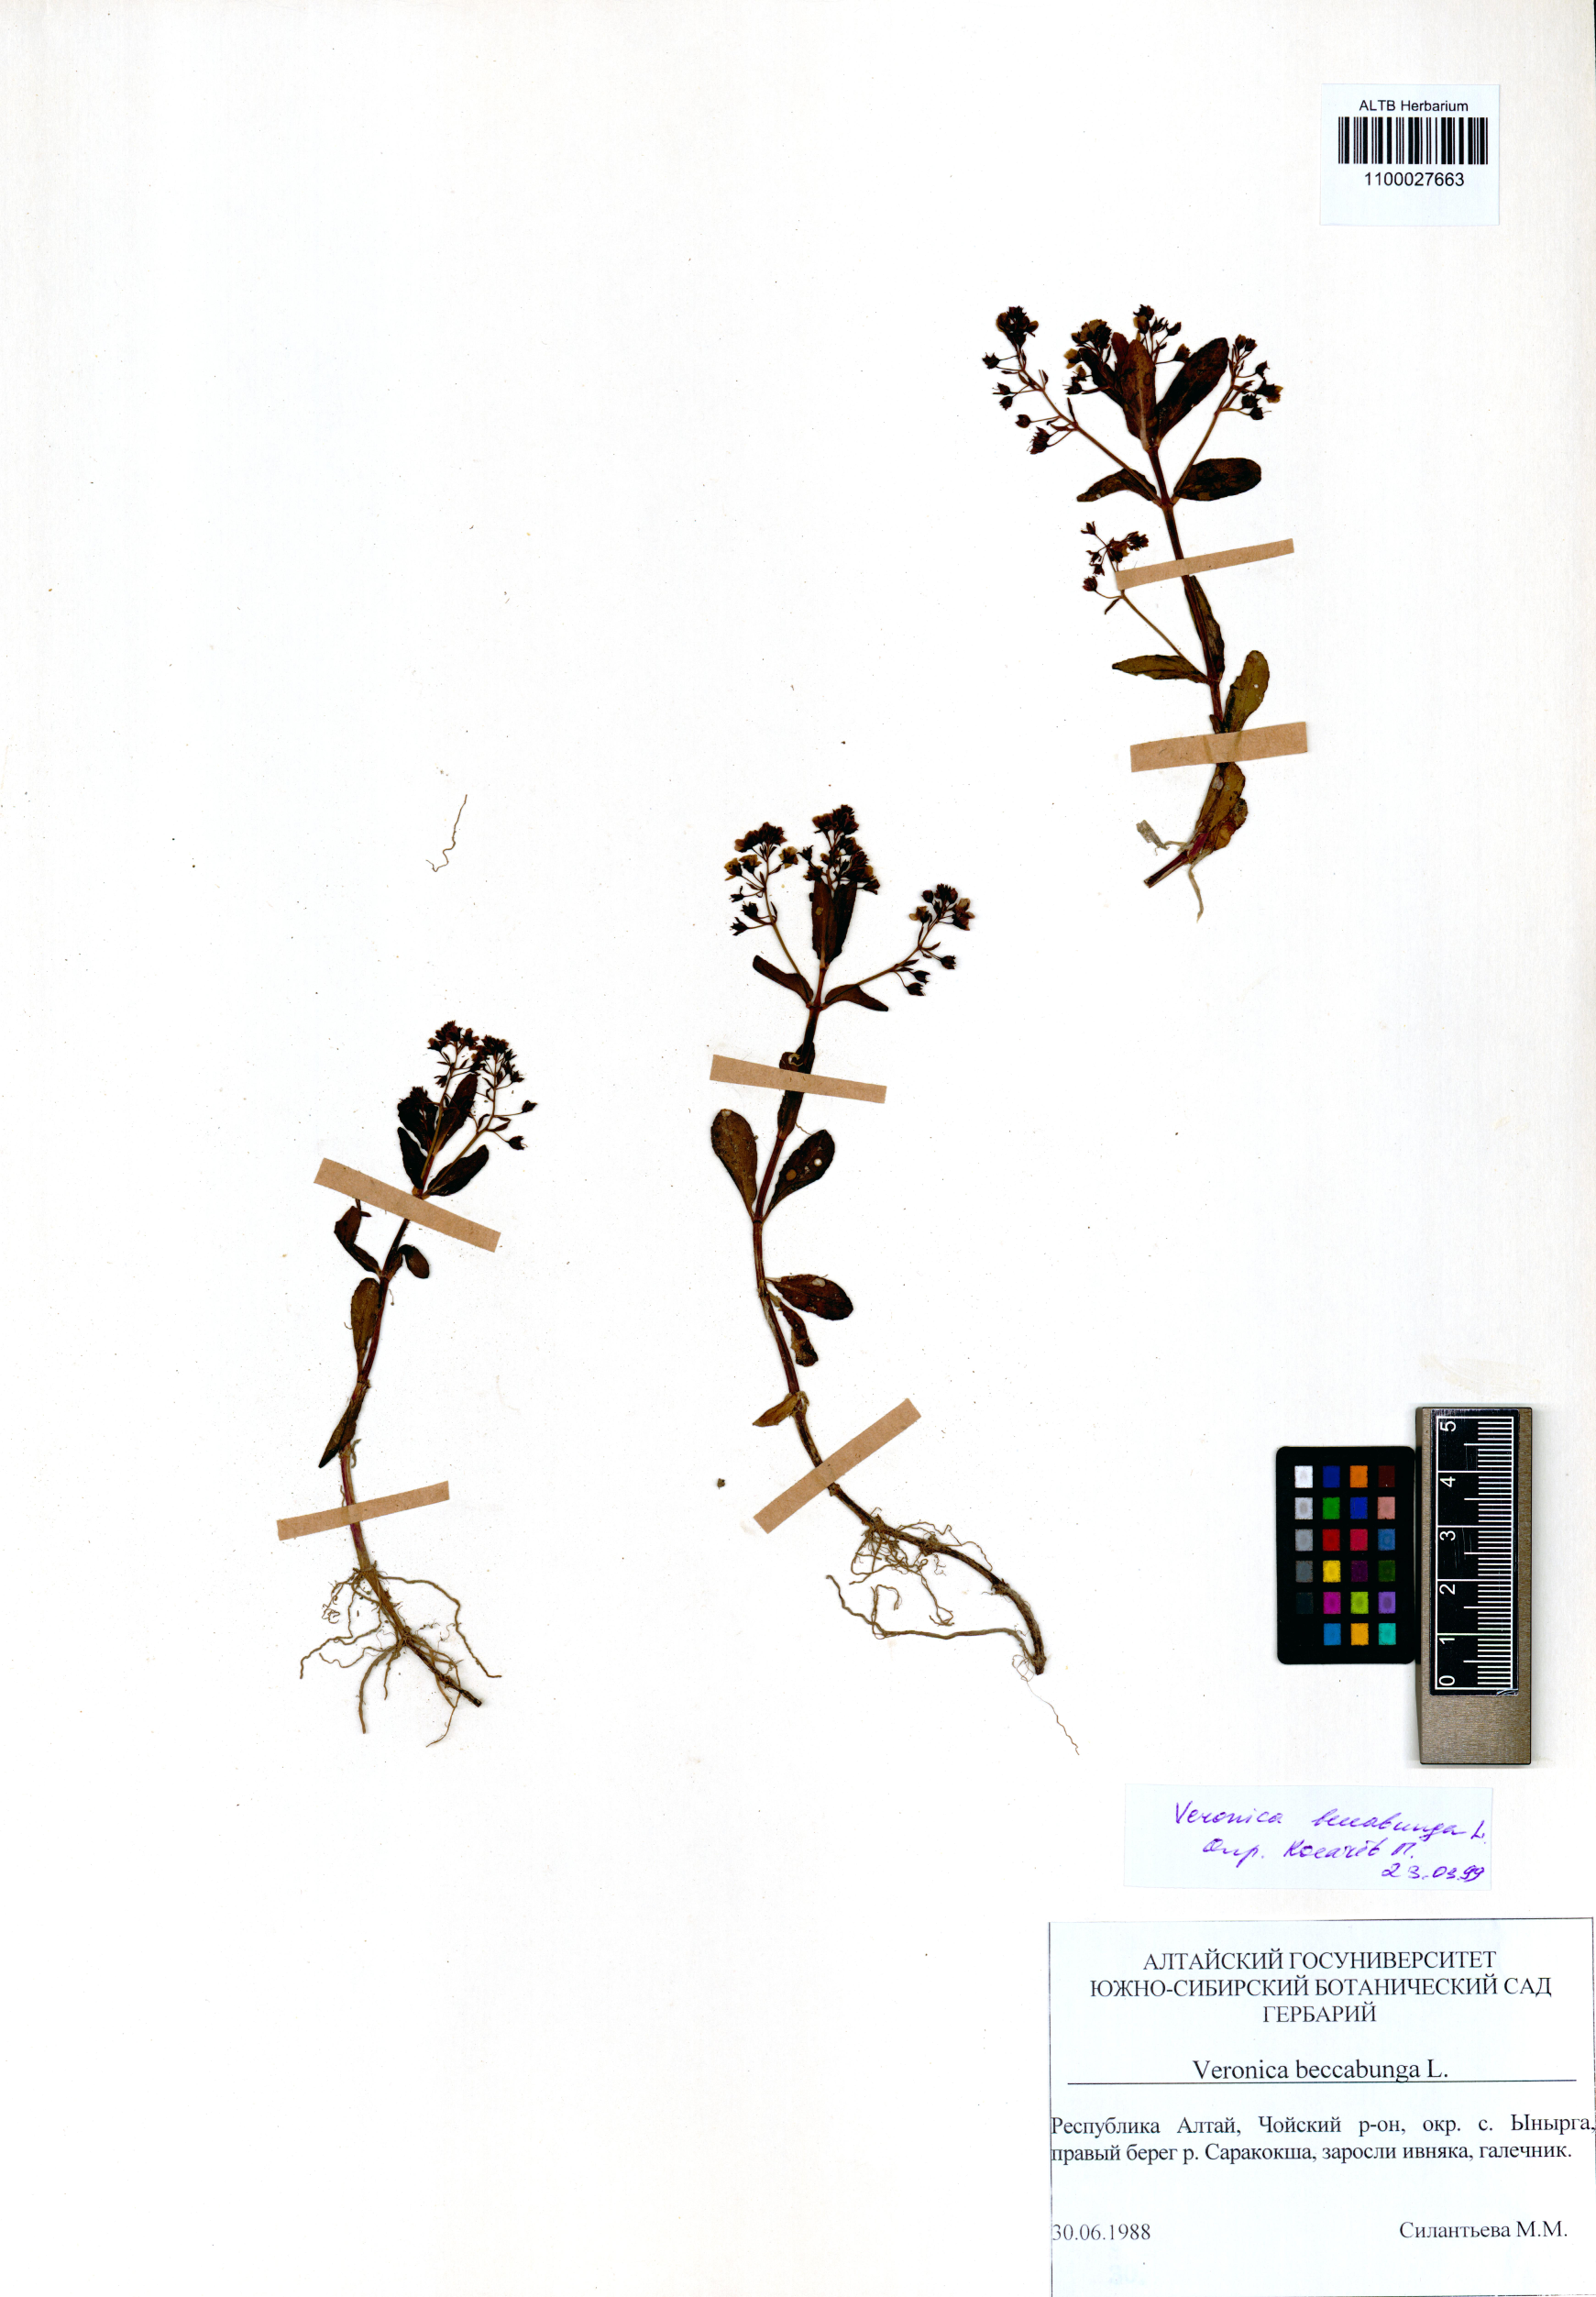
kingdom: Plantae
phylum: Tracheophyta
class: Magnoliopsida
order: Lamiales
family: Plantaginaceae
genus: Veronica
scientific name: Veronica beccabunga
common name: Brooklime
